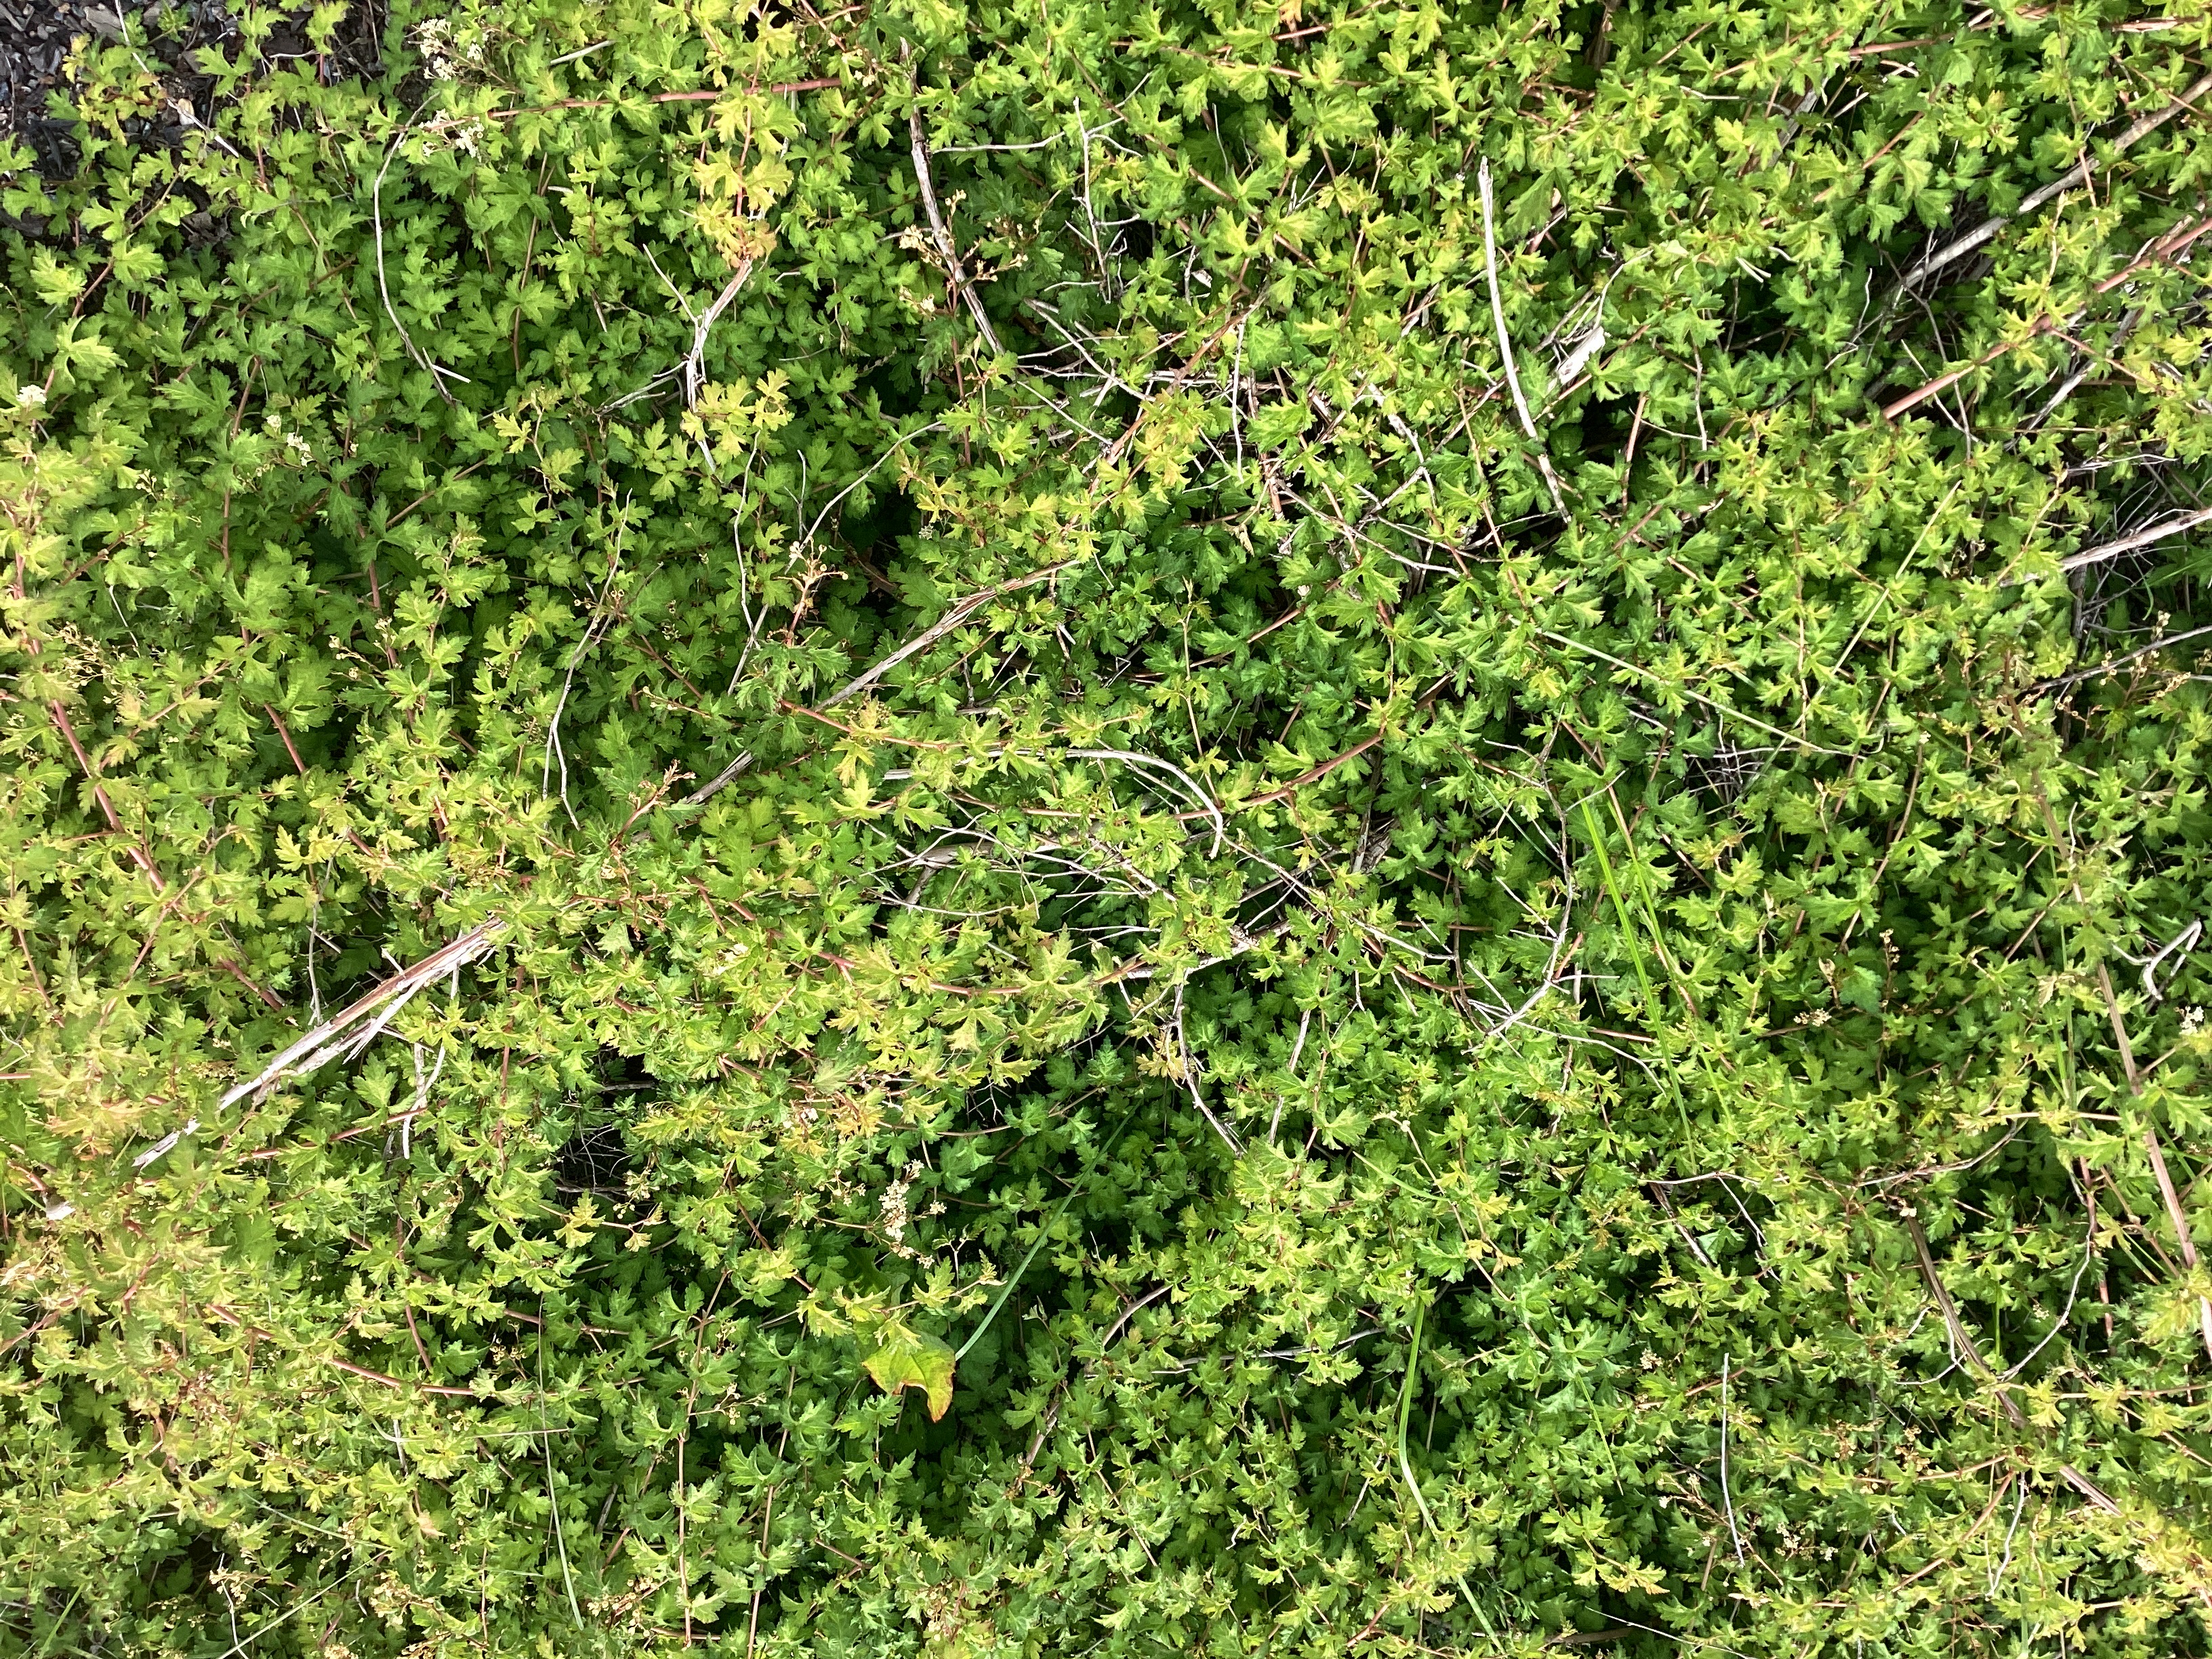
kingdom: Plantae
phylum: Tracheophyta
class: Magnoliopsida
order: Rosales
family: Rosaceae
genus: Neillia
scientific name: Neillia incisa
